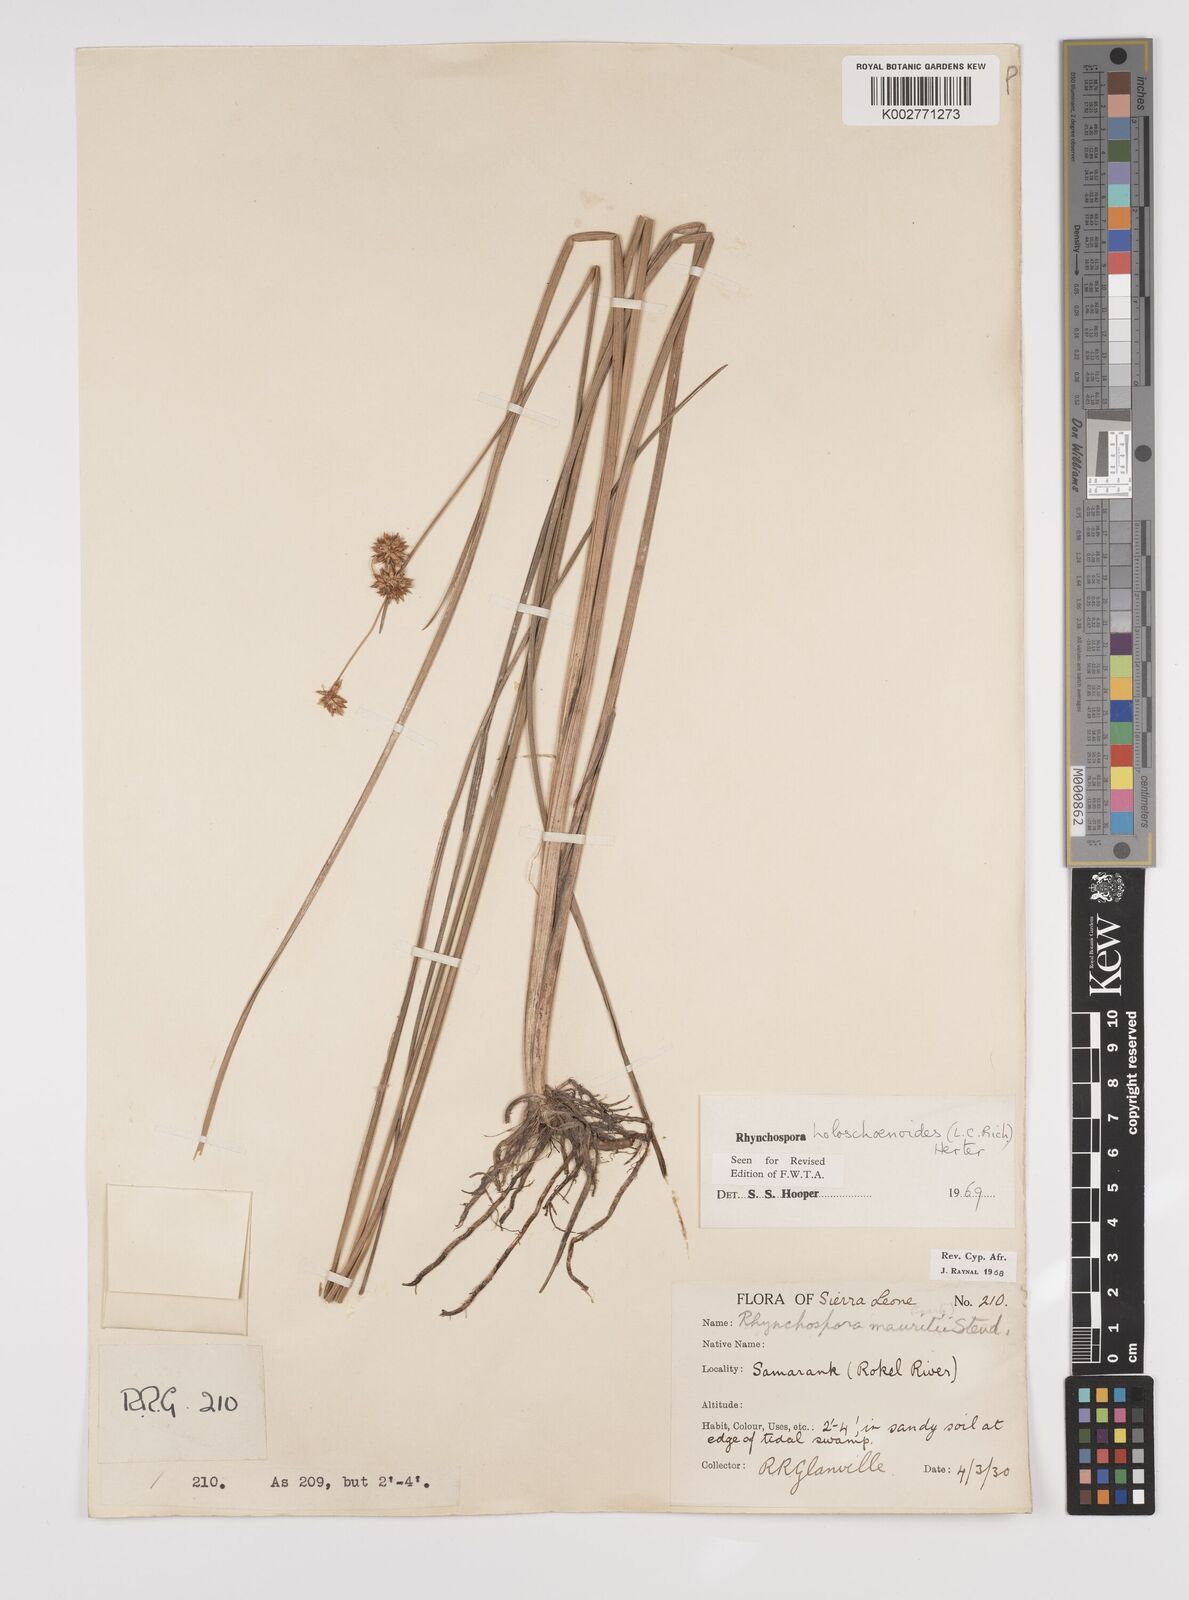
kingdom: Plantae
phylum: Tracheophyta
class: Liliopsida
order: Poales
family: Cyperaceae
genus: Rhynchospora
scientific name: Rhynchospora holoschoenoides
